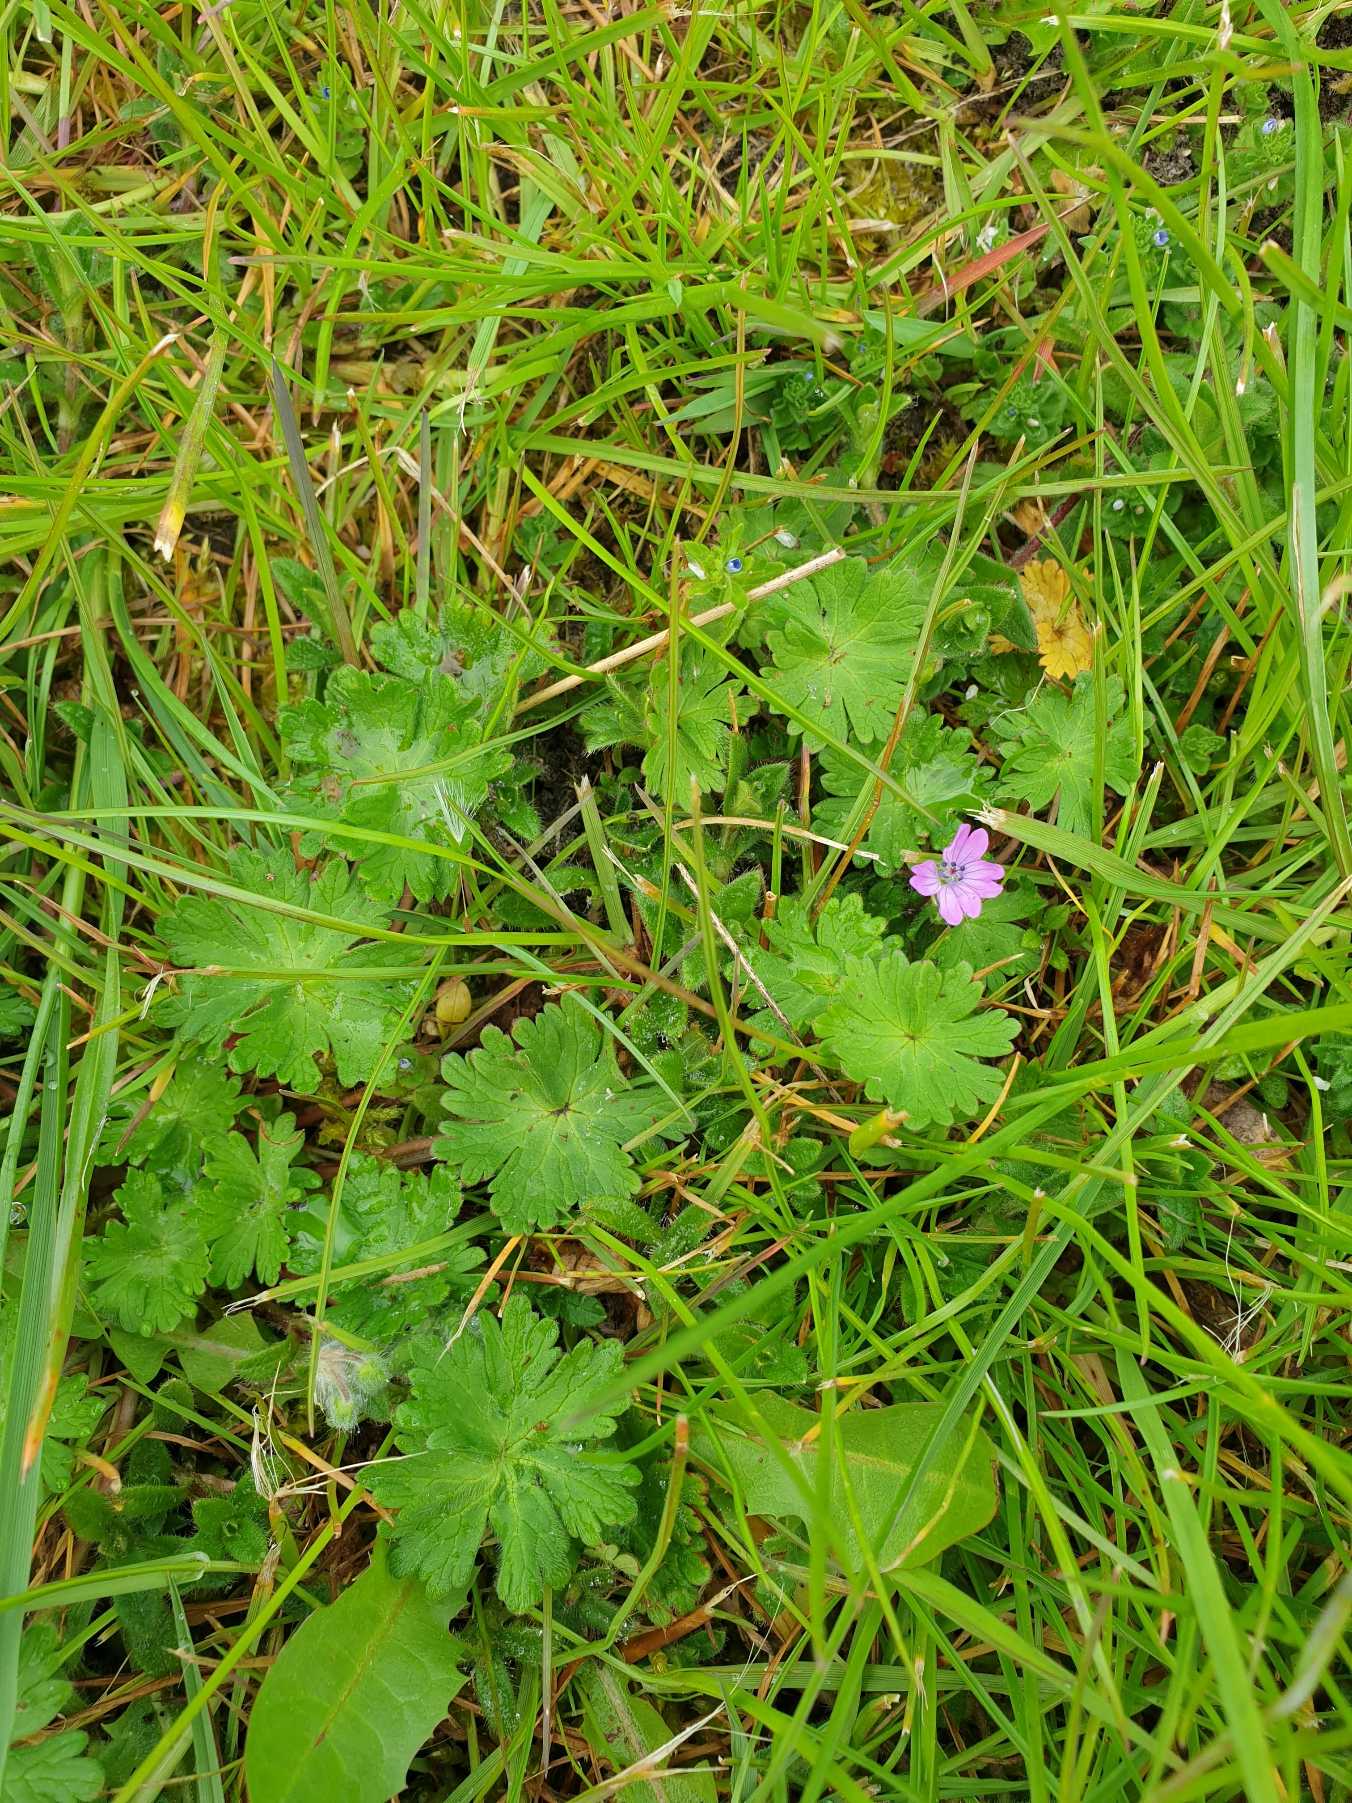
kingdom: Plantae
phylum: Tracheophyta
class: Magnoliopsida
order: Geraniales
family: Geraniaceae
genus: Geranium
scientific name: Geranium molle
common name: Blød storkenæb
